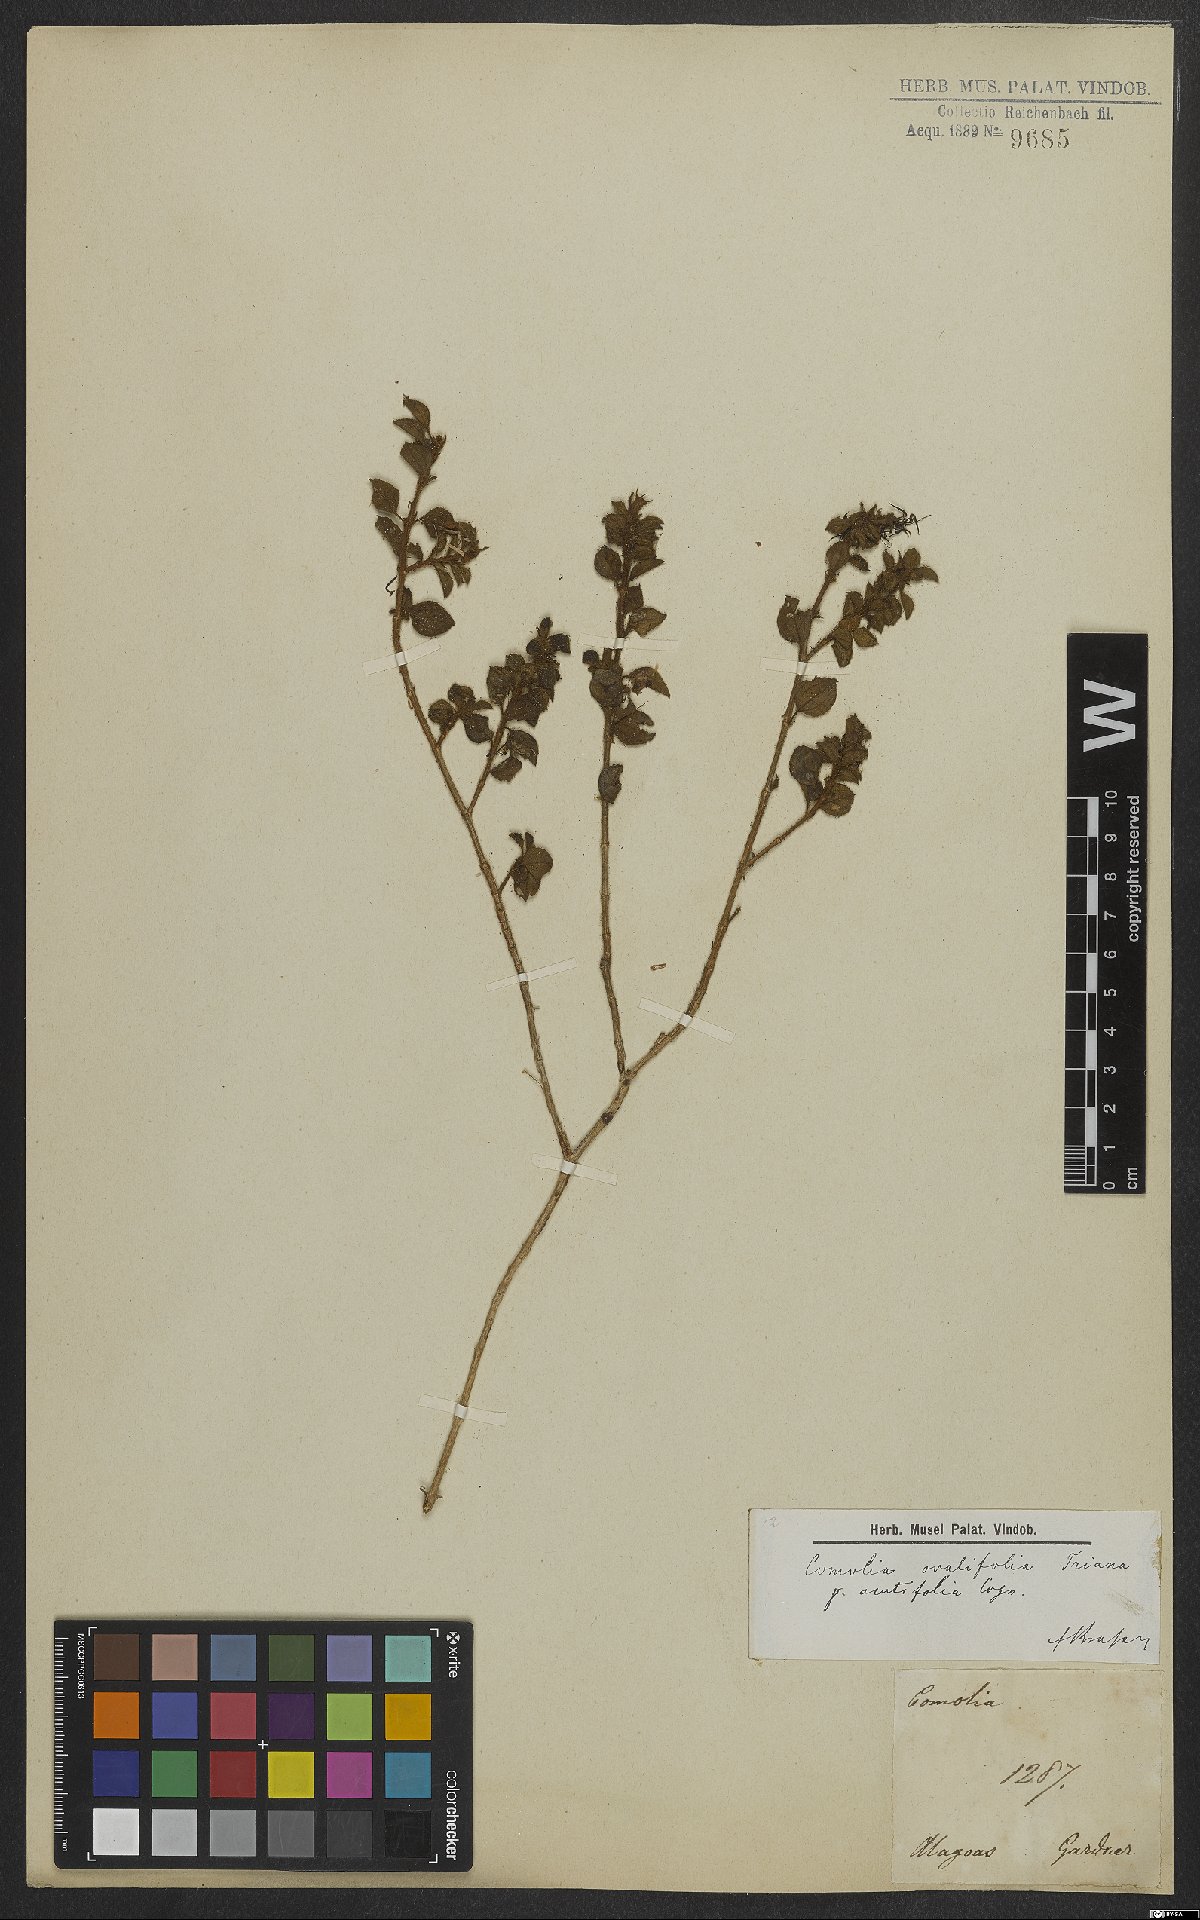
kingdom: Plantae
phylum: Tracheophyta
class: Magnoliopsida
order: Myrtales
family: Melastomataceae
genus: Comolia
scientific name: Comolia ovalifolia
